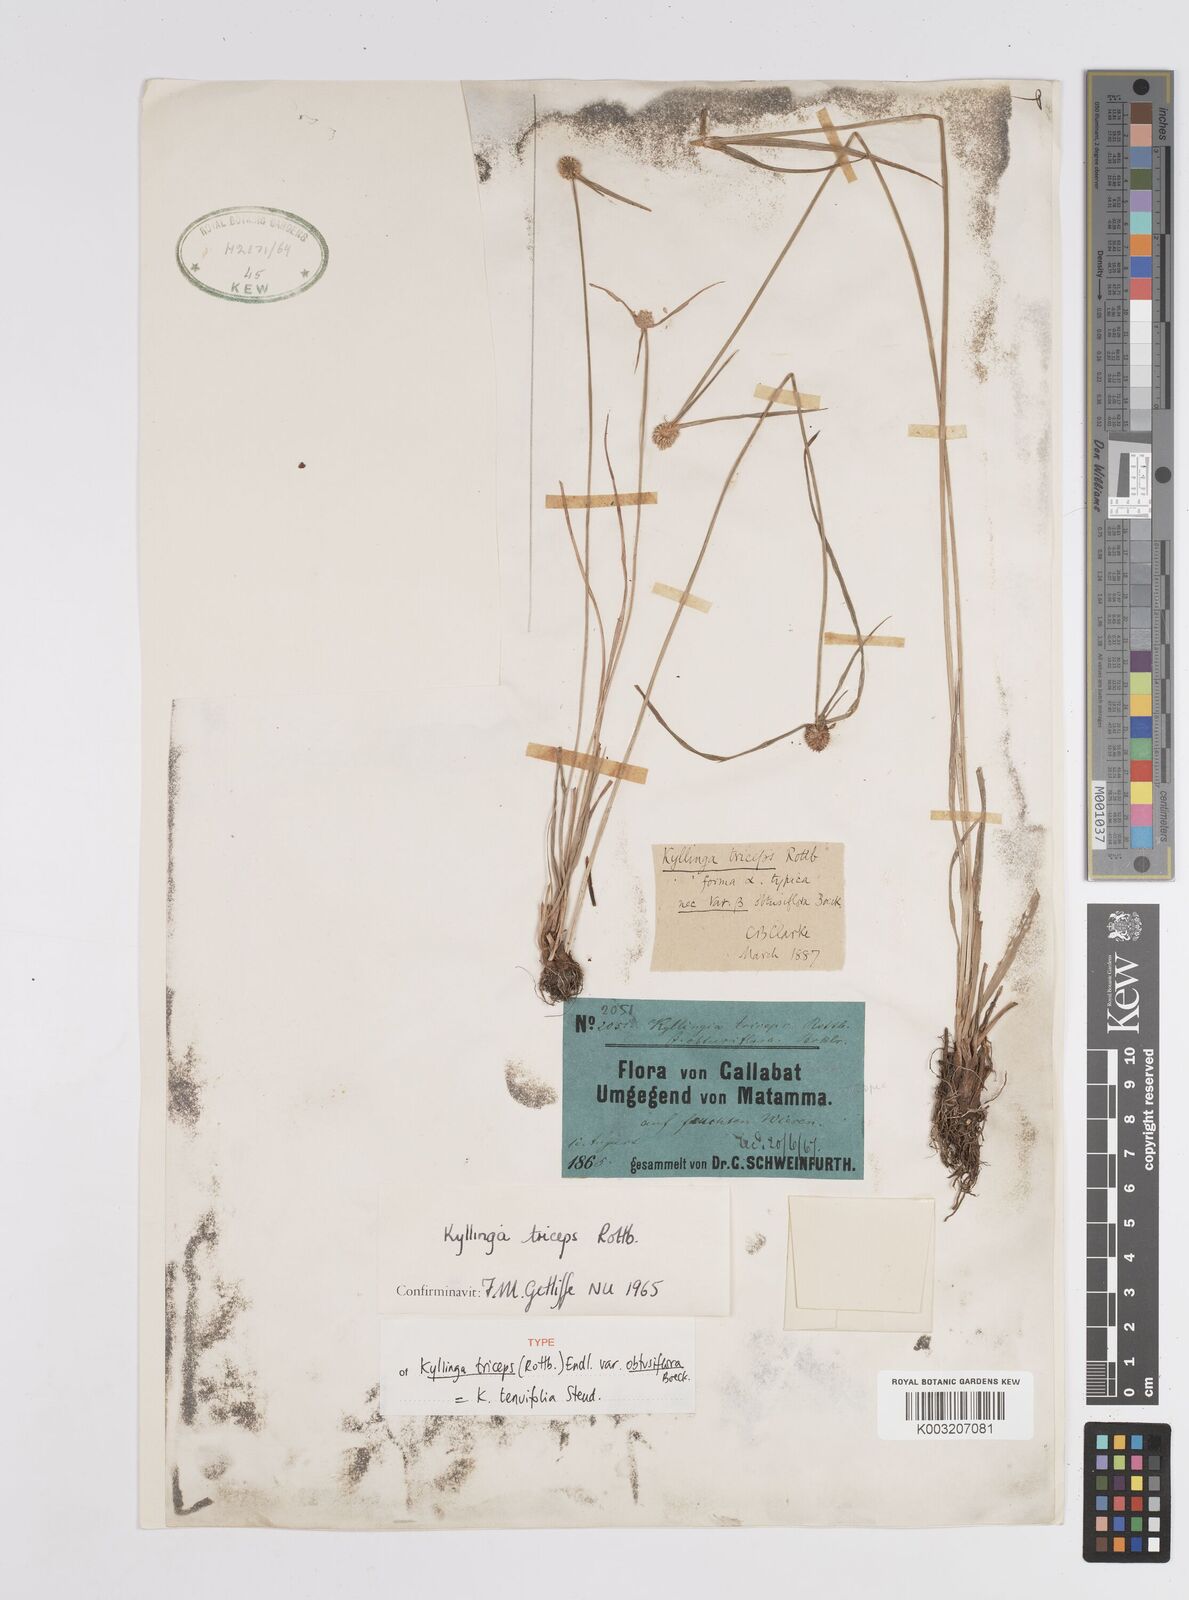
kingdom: Plantae
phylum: Tracheophyta
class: Liliopsida
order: Poales
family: Cyperaceae
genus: Cyperus
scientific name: Cyperus
